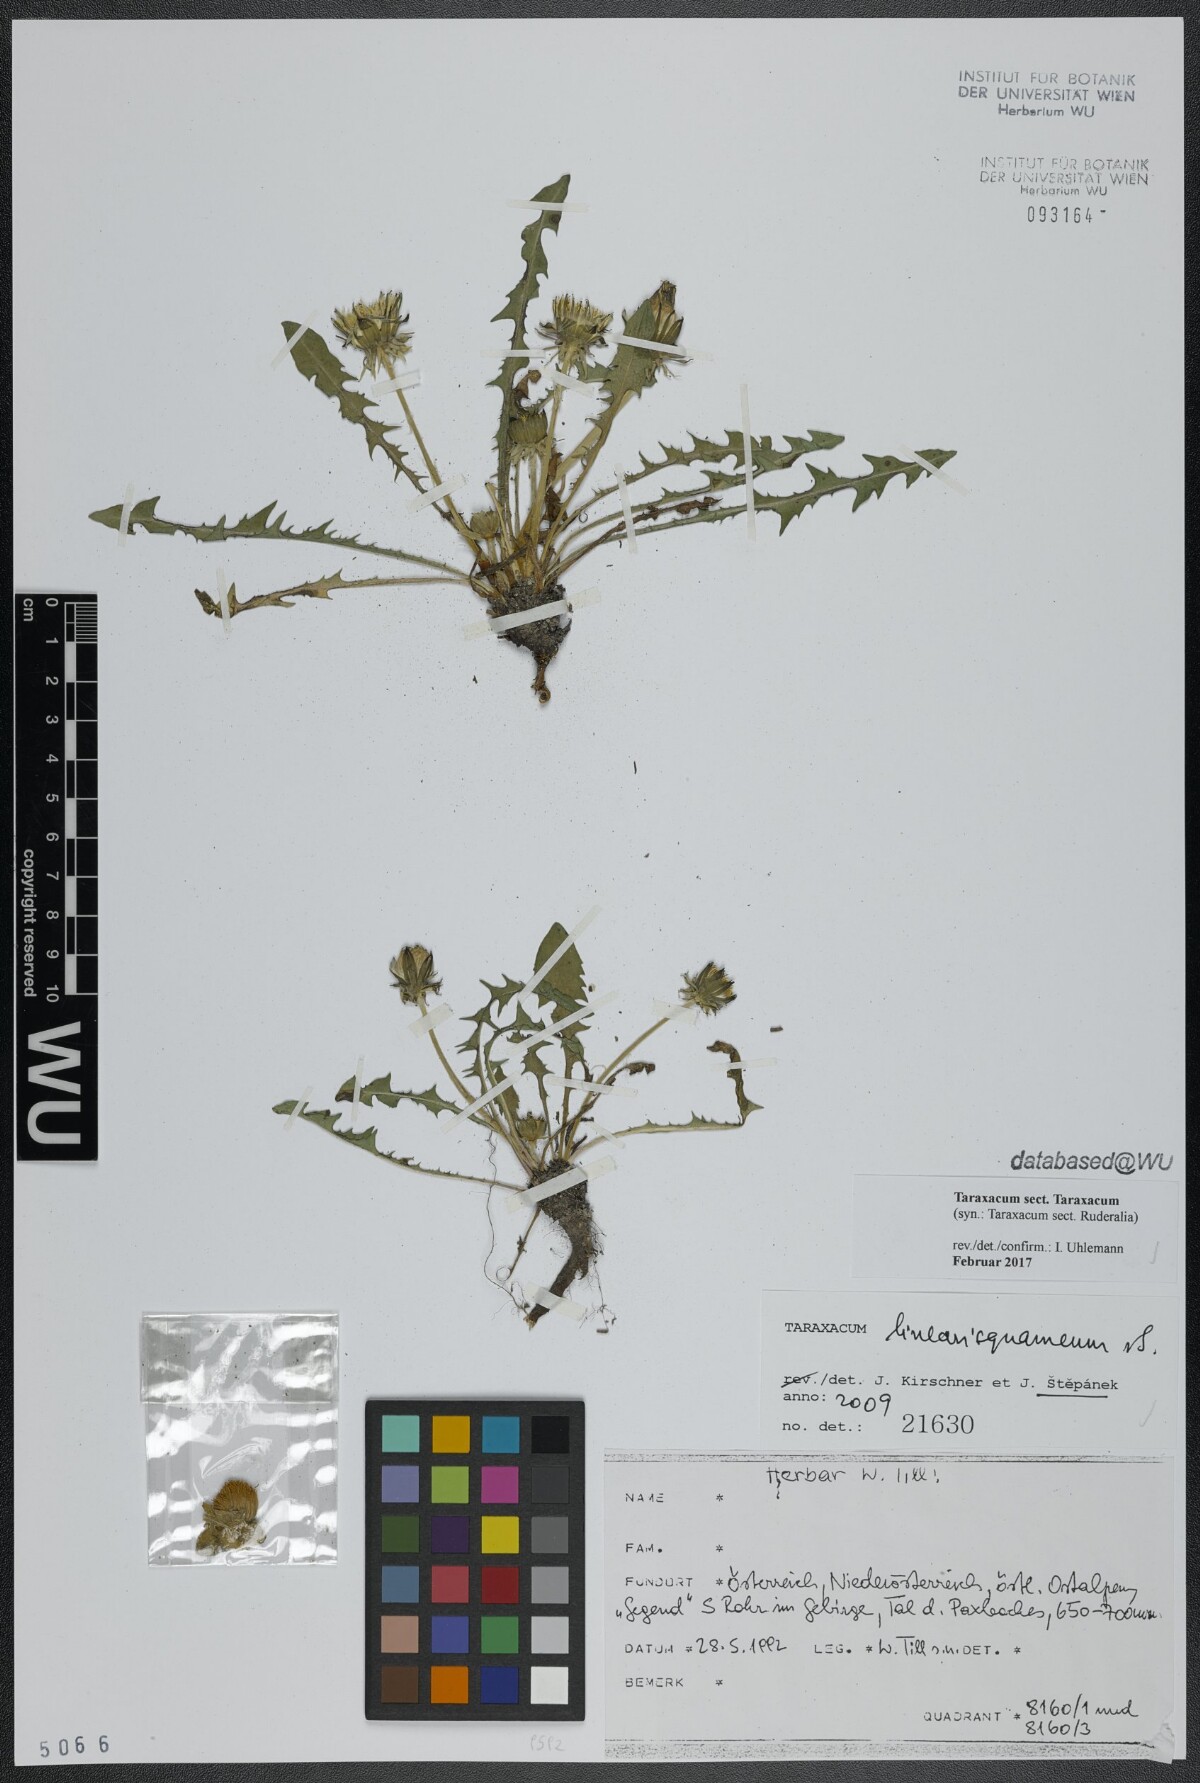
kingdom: Plantae
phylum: Tracheophyta
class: Magnoliopsida
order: Asterales
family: Asteraceae
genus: Taraxacum
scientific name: Taraxacum
